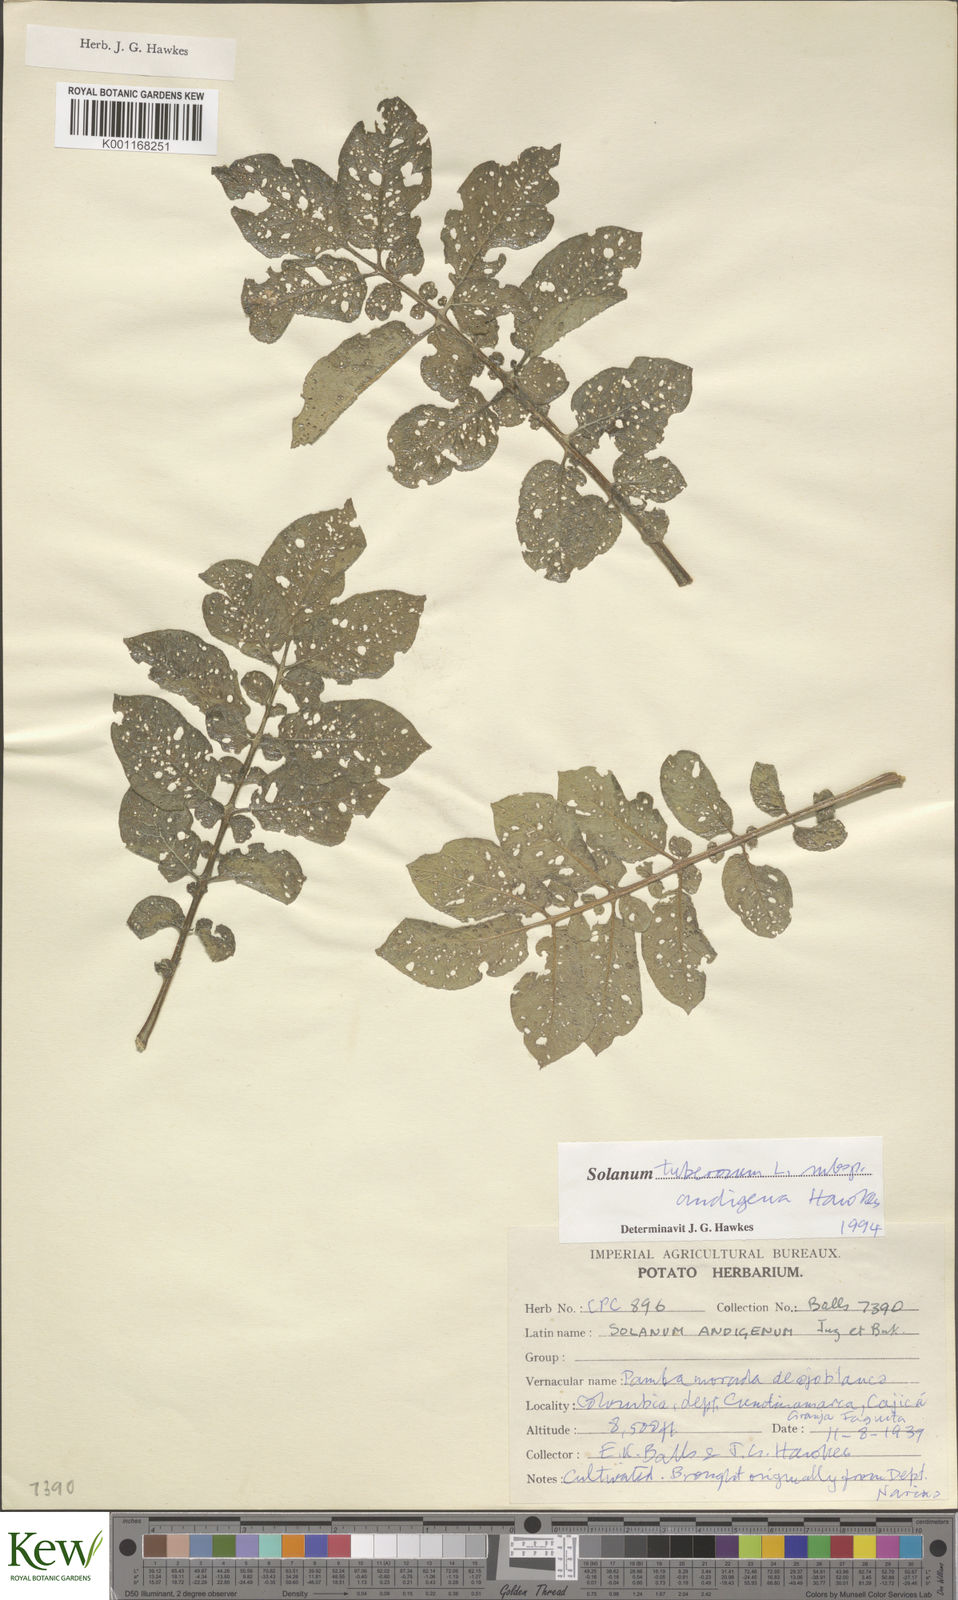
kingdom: Plantae
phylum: Tracheophyta
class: Magnoliopsida
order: Solanales
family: Solanaceae
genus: Solanum
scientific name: Solanum tuberosum
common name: Potato
